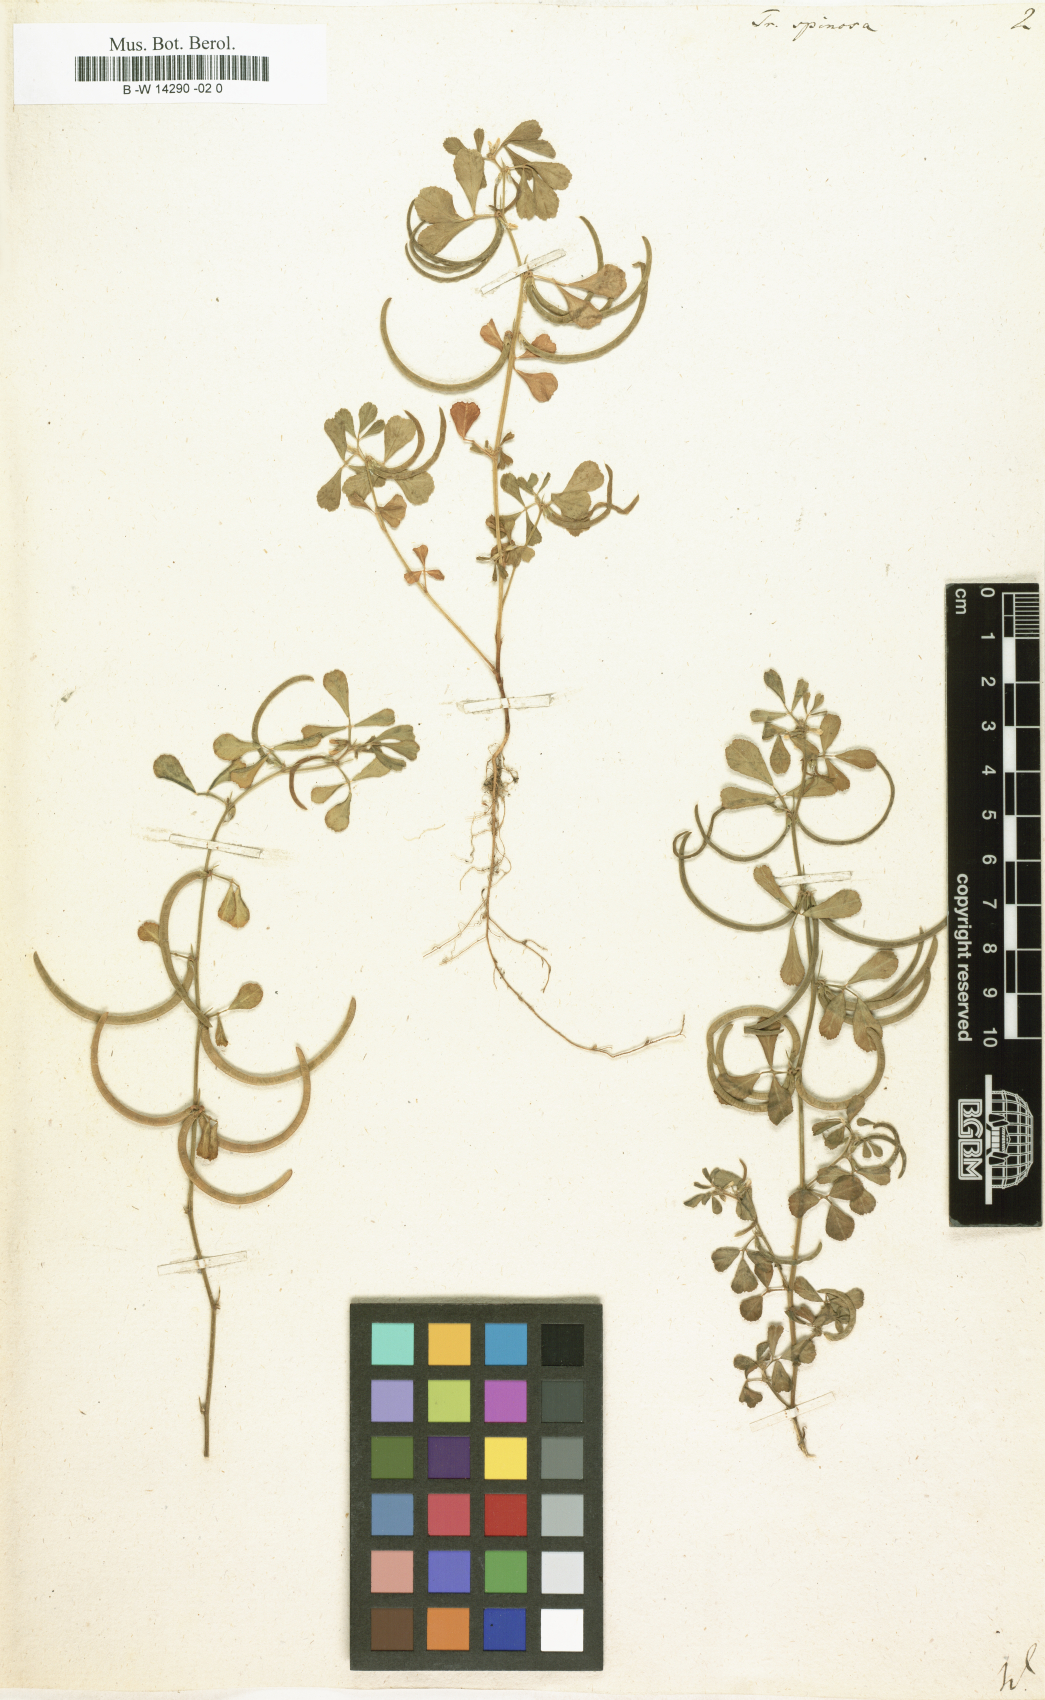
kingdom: Plantae
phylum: Tracheophyta
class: Magnoliopsida
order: Fabales
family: Fabaceae
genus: Trigonella
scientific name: Trigonella spinosa
